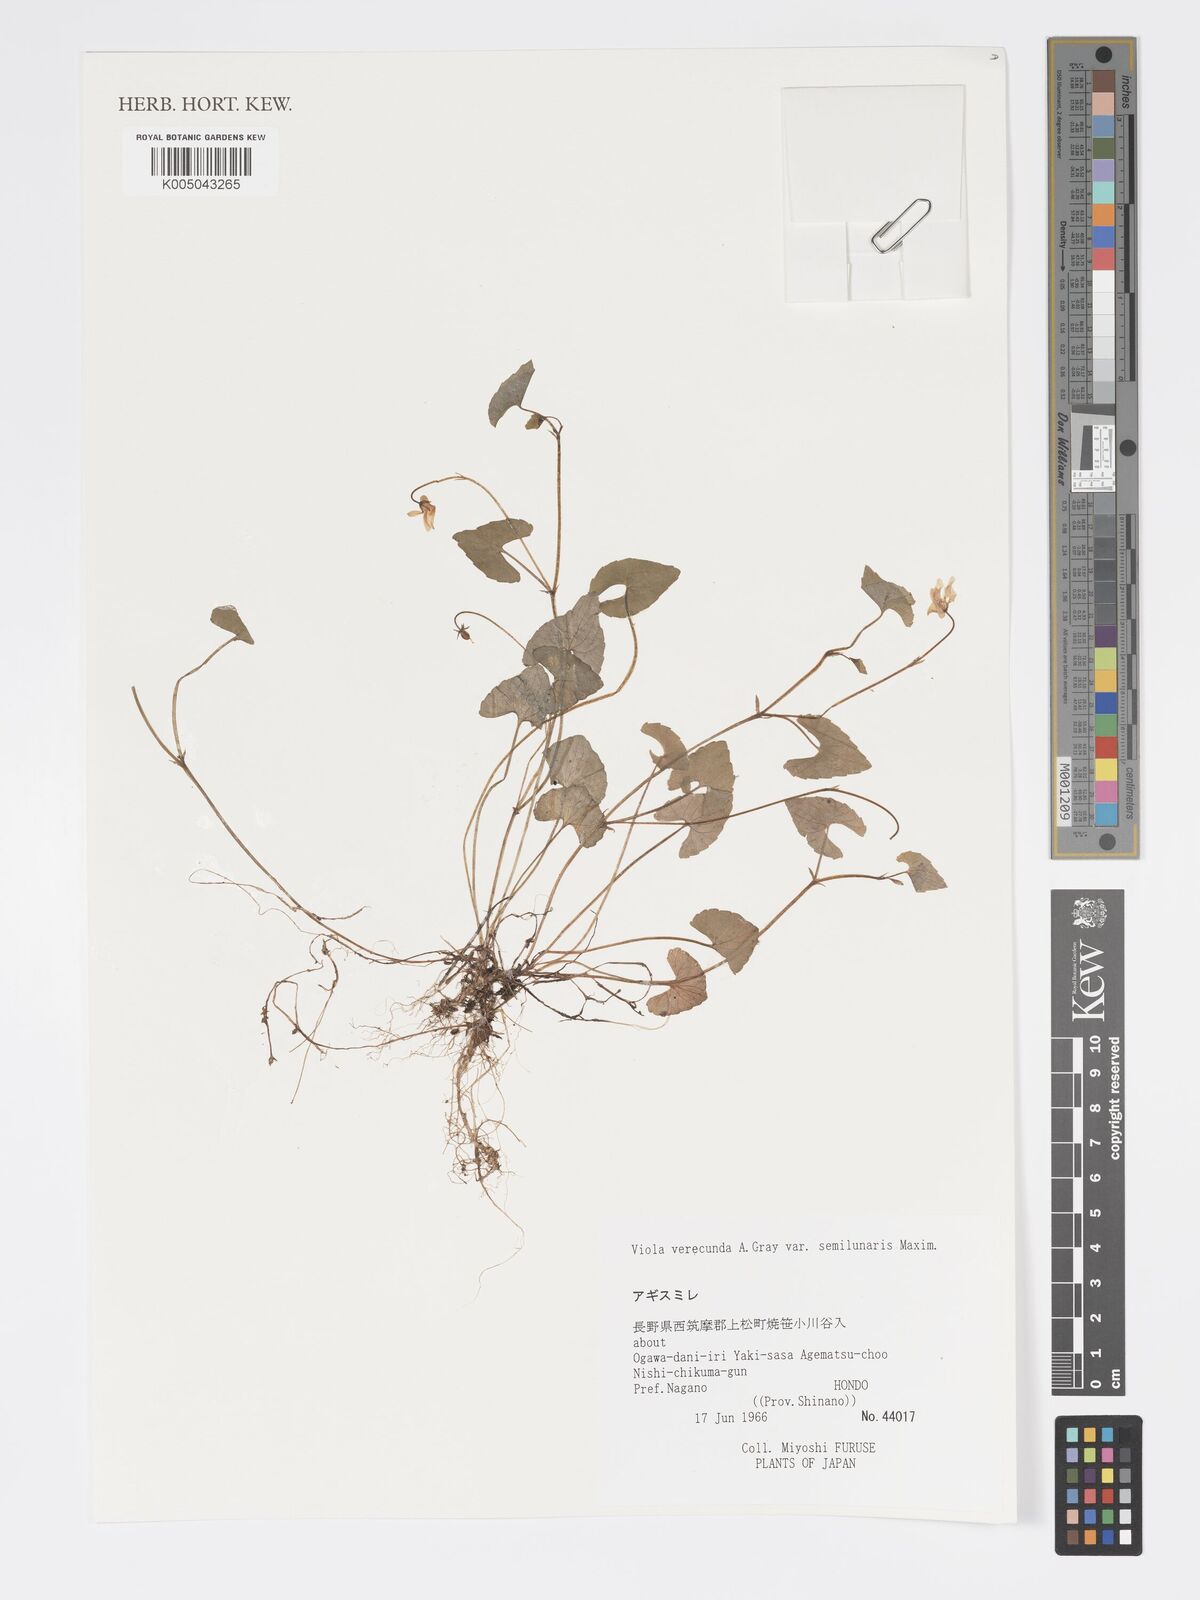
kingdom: Plantae
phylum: Tracheophyta
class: Magnoliopsida
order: Malpighiales
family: Violaceae
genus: Viola
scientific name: Viola hamiltoniana
